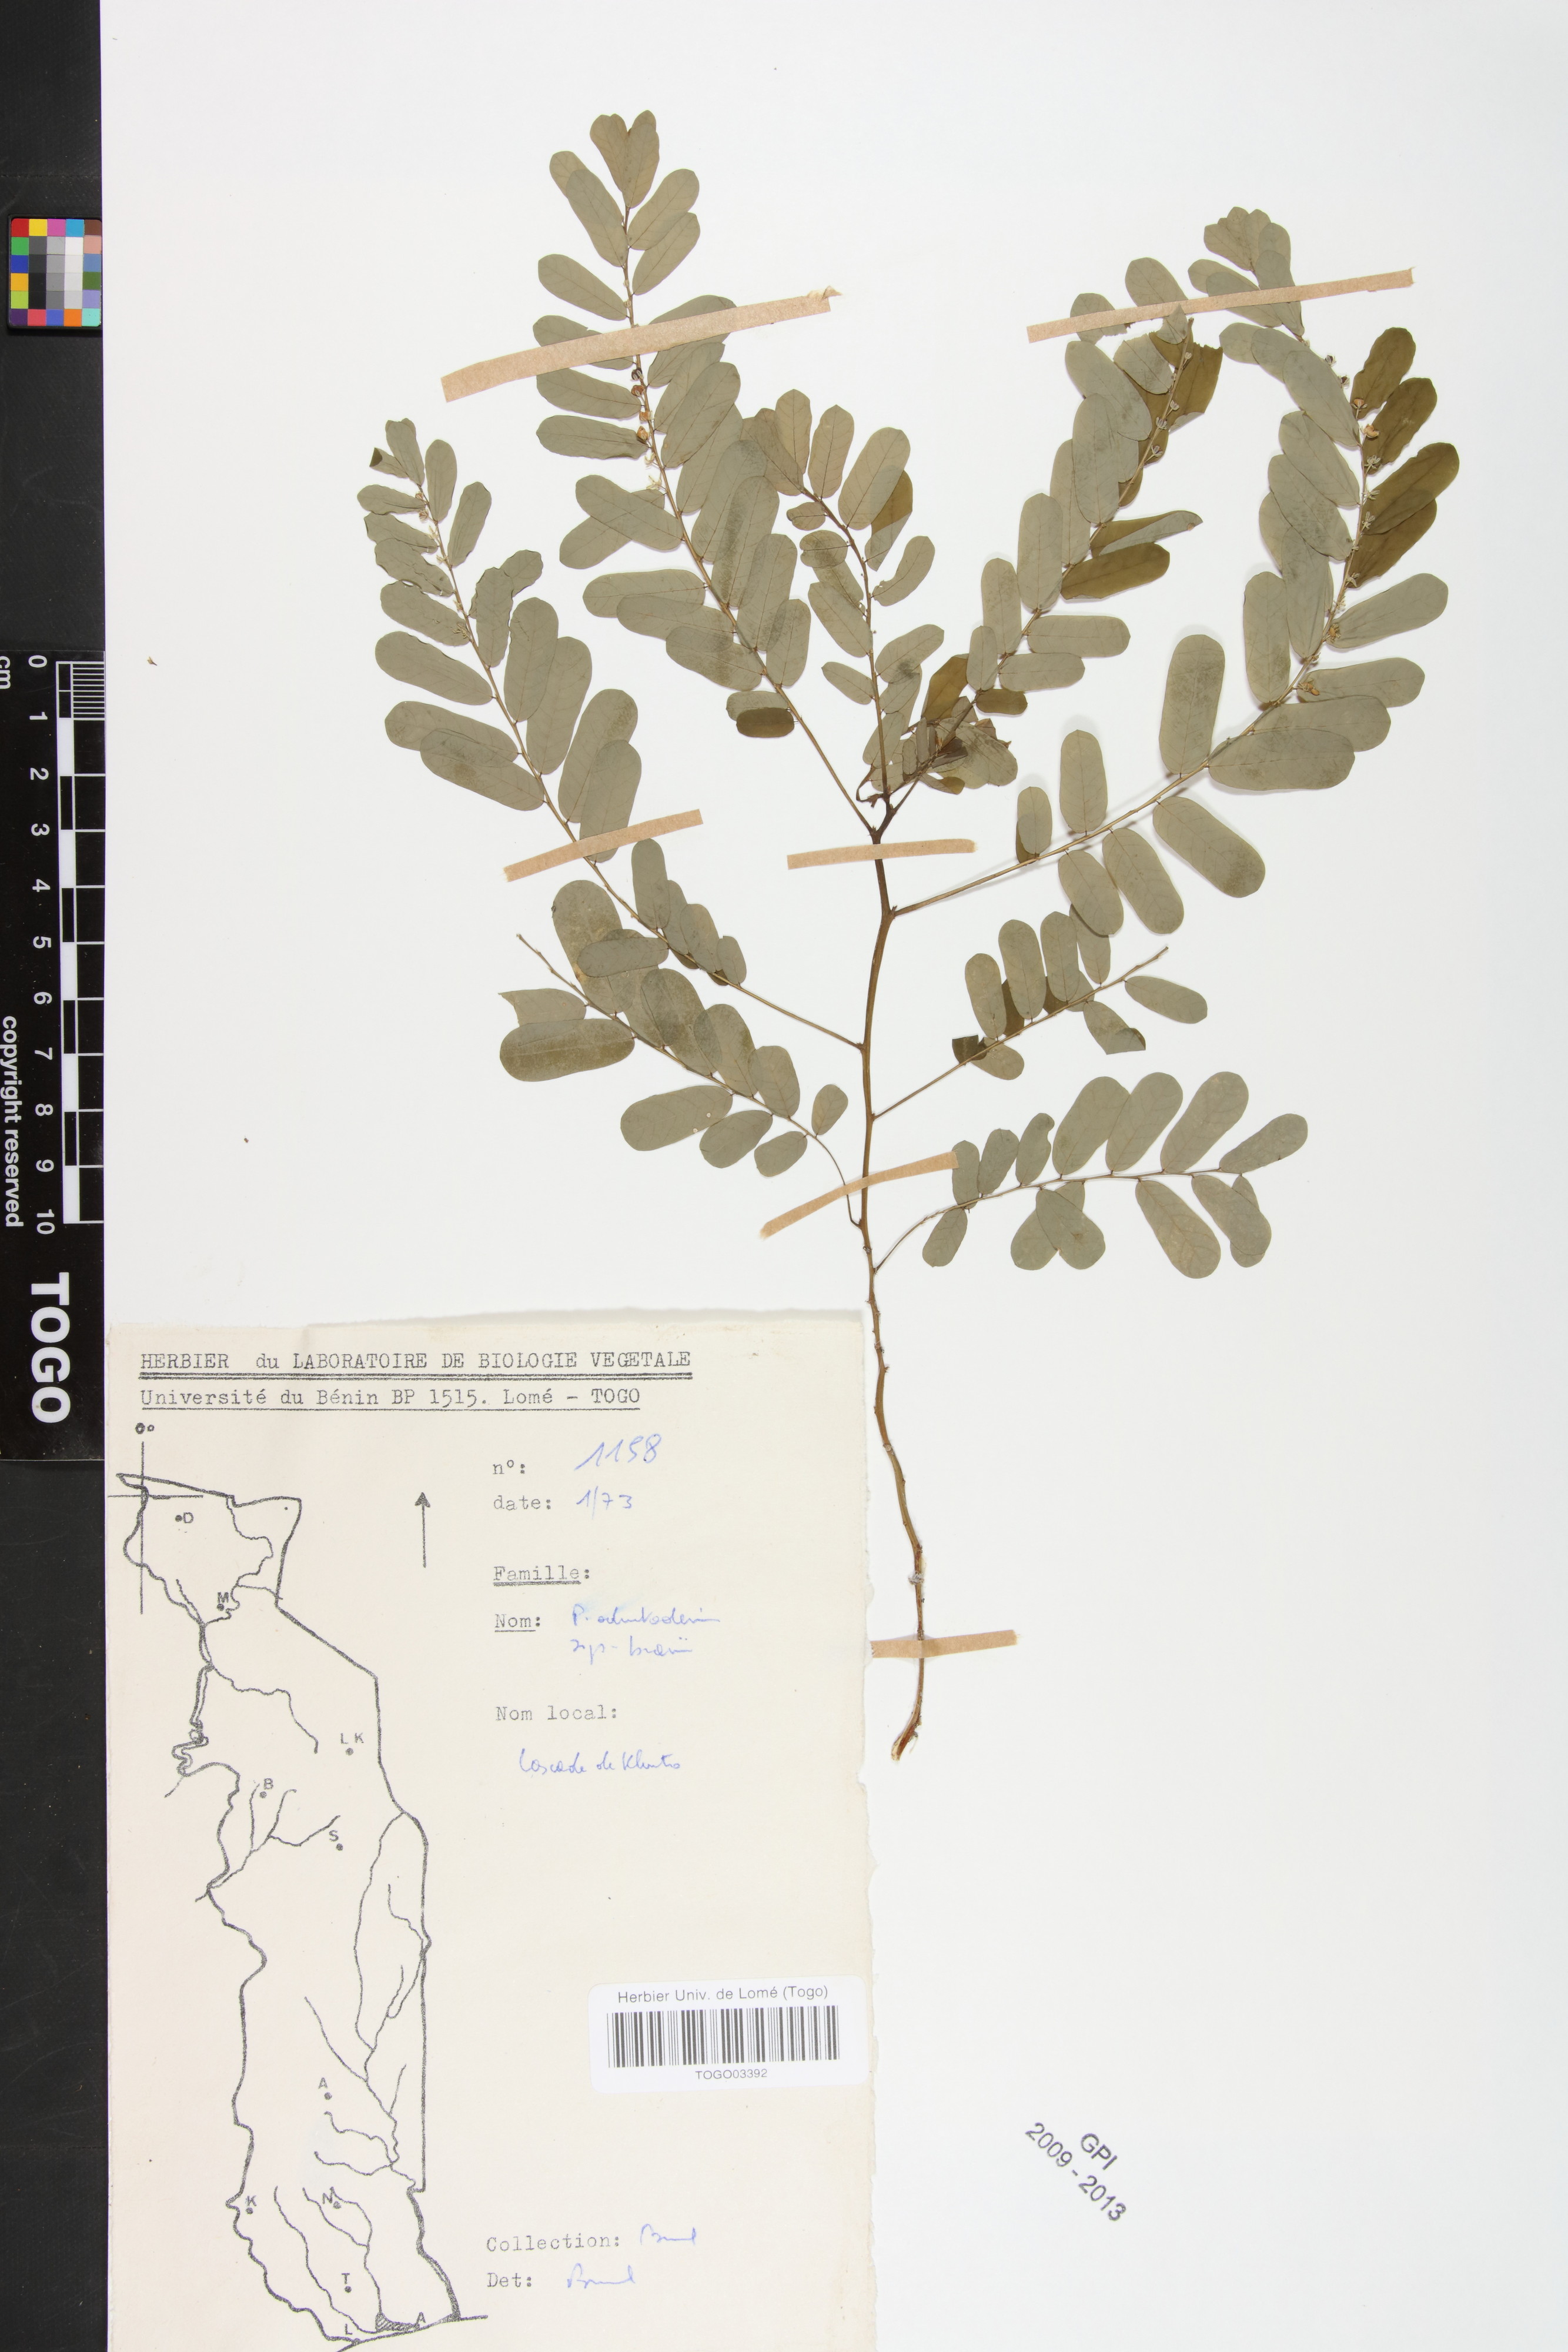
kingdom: Plantae
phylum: Tracheophyta
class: Magnoliopsida
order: Malpighiales
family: Phyllanthaceae
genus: Phyllanthus
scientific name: Phyllanthus odontadenius
